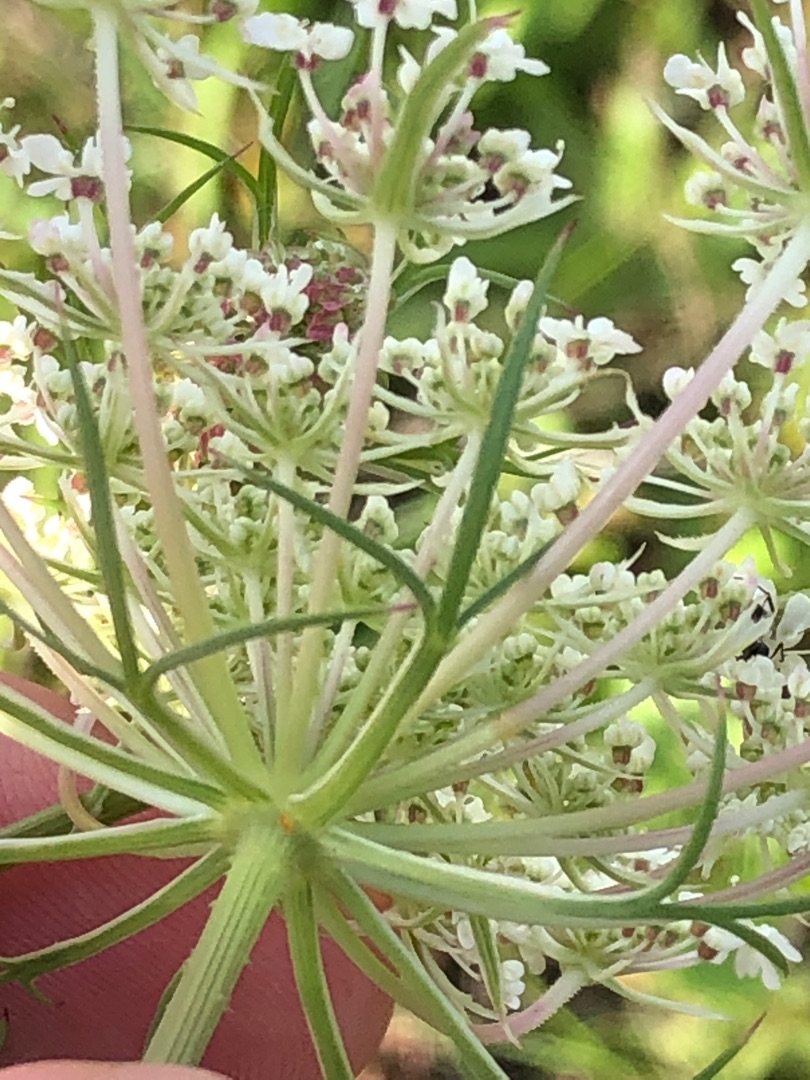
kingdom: Plantae
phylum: Tracheophyta
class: Magnoliopsida
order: Apiales
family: Apiaceae
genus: Daucus
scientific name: Daucus carota
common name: Gulerod
